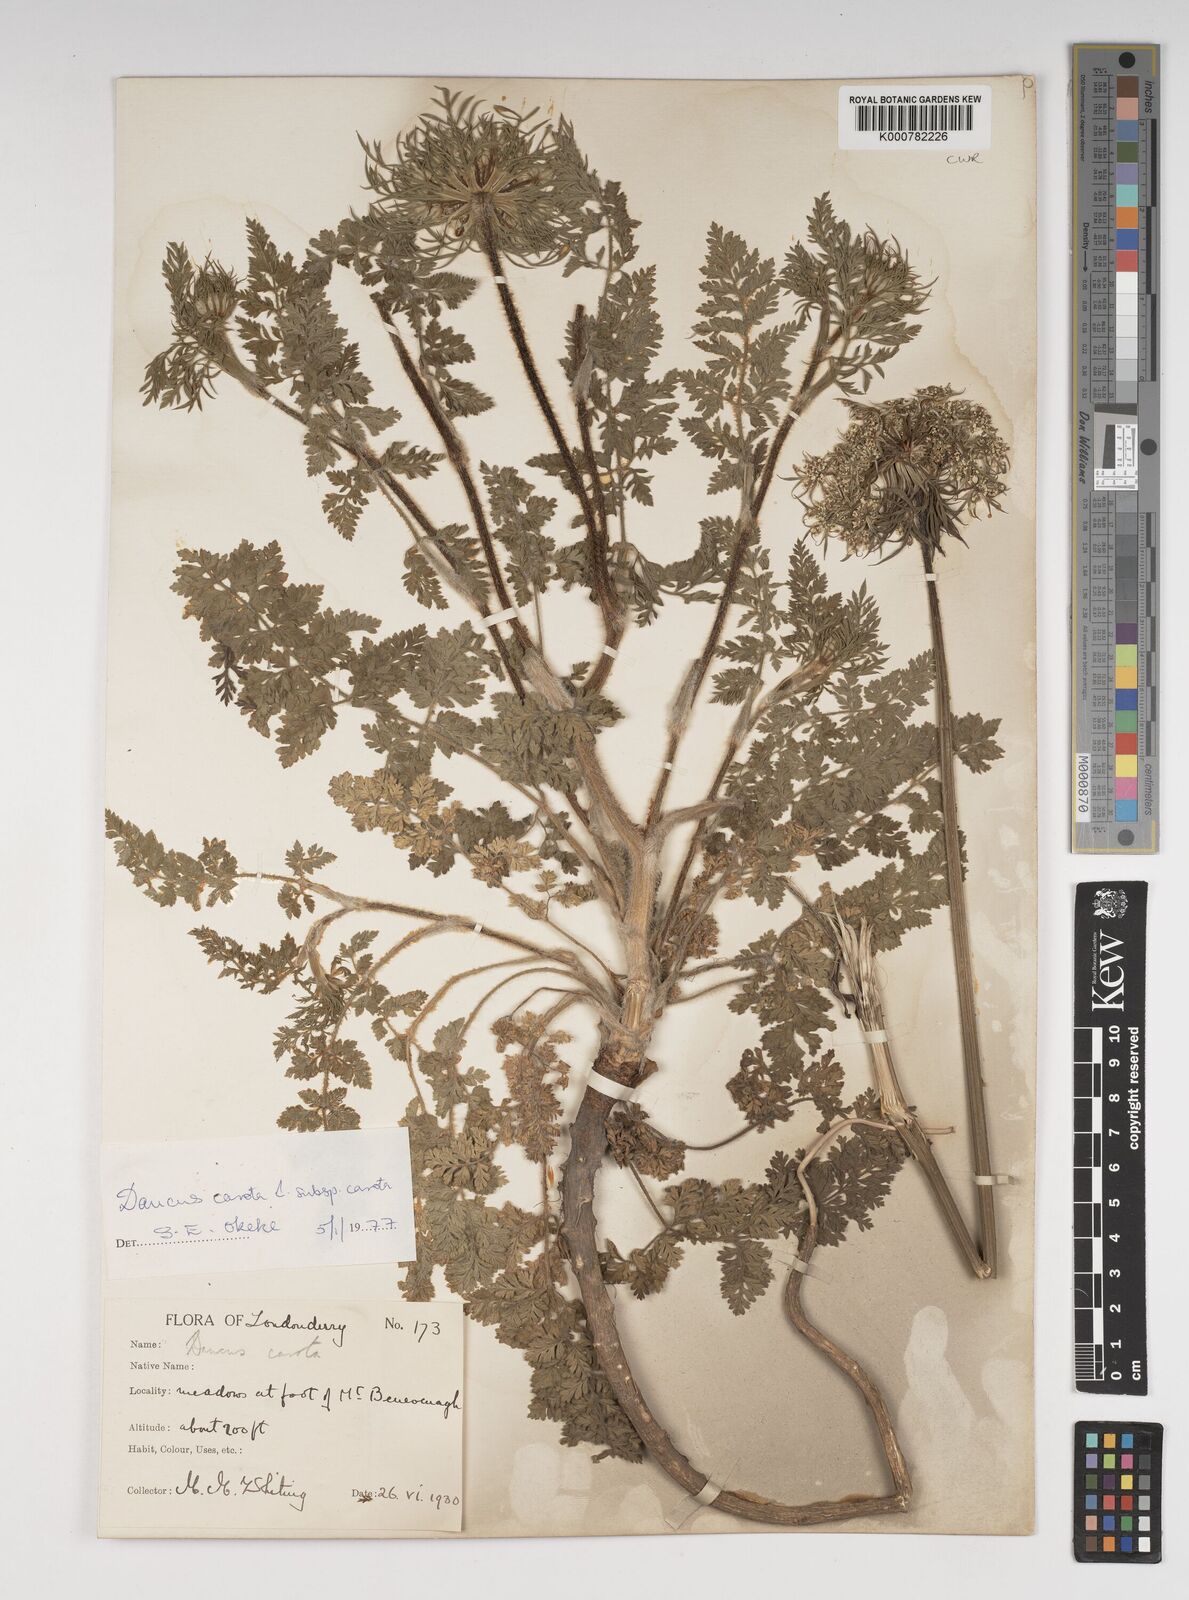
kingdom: Plantae
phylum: Tracheophyta
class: Magnoliopsida
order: Apiales
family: Apiaceae
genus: Daucus
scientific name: Daucus carota
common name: Wild carrot
